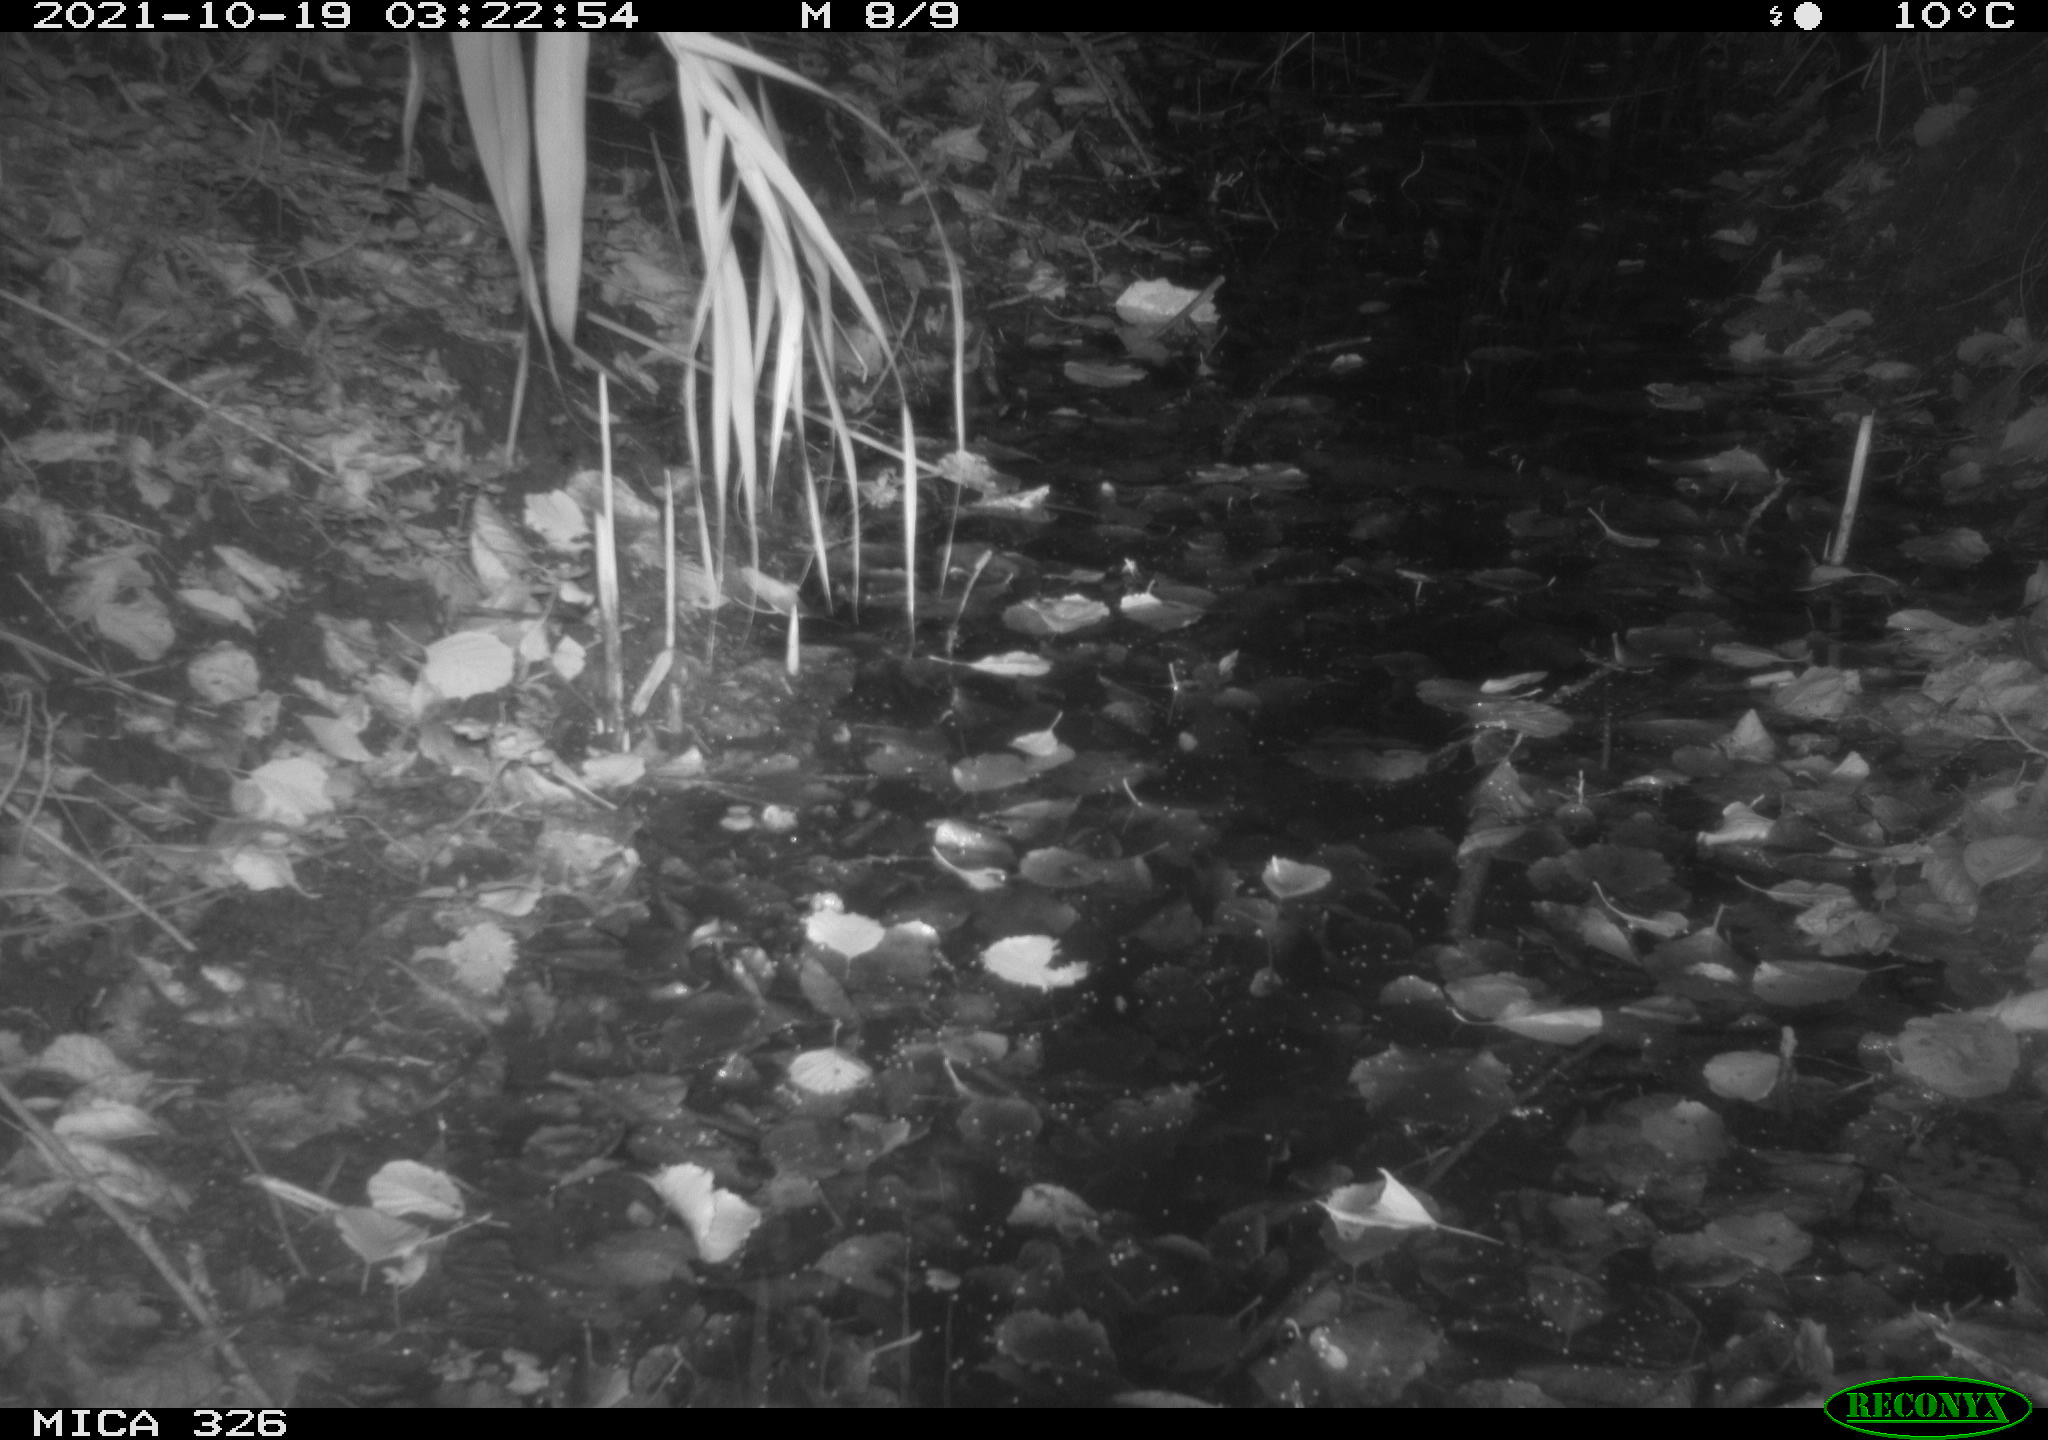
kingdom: Animalia
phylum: Chordata
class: Mammalia
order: Rodentia
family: Muridae
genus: Rattus
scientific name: Rattus norvegicus
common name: Brown rat
